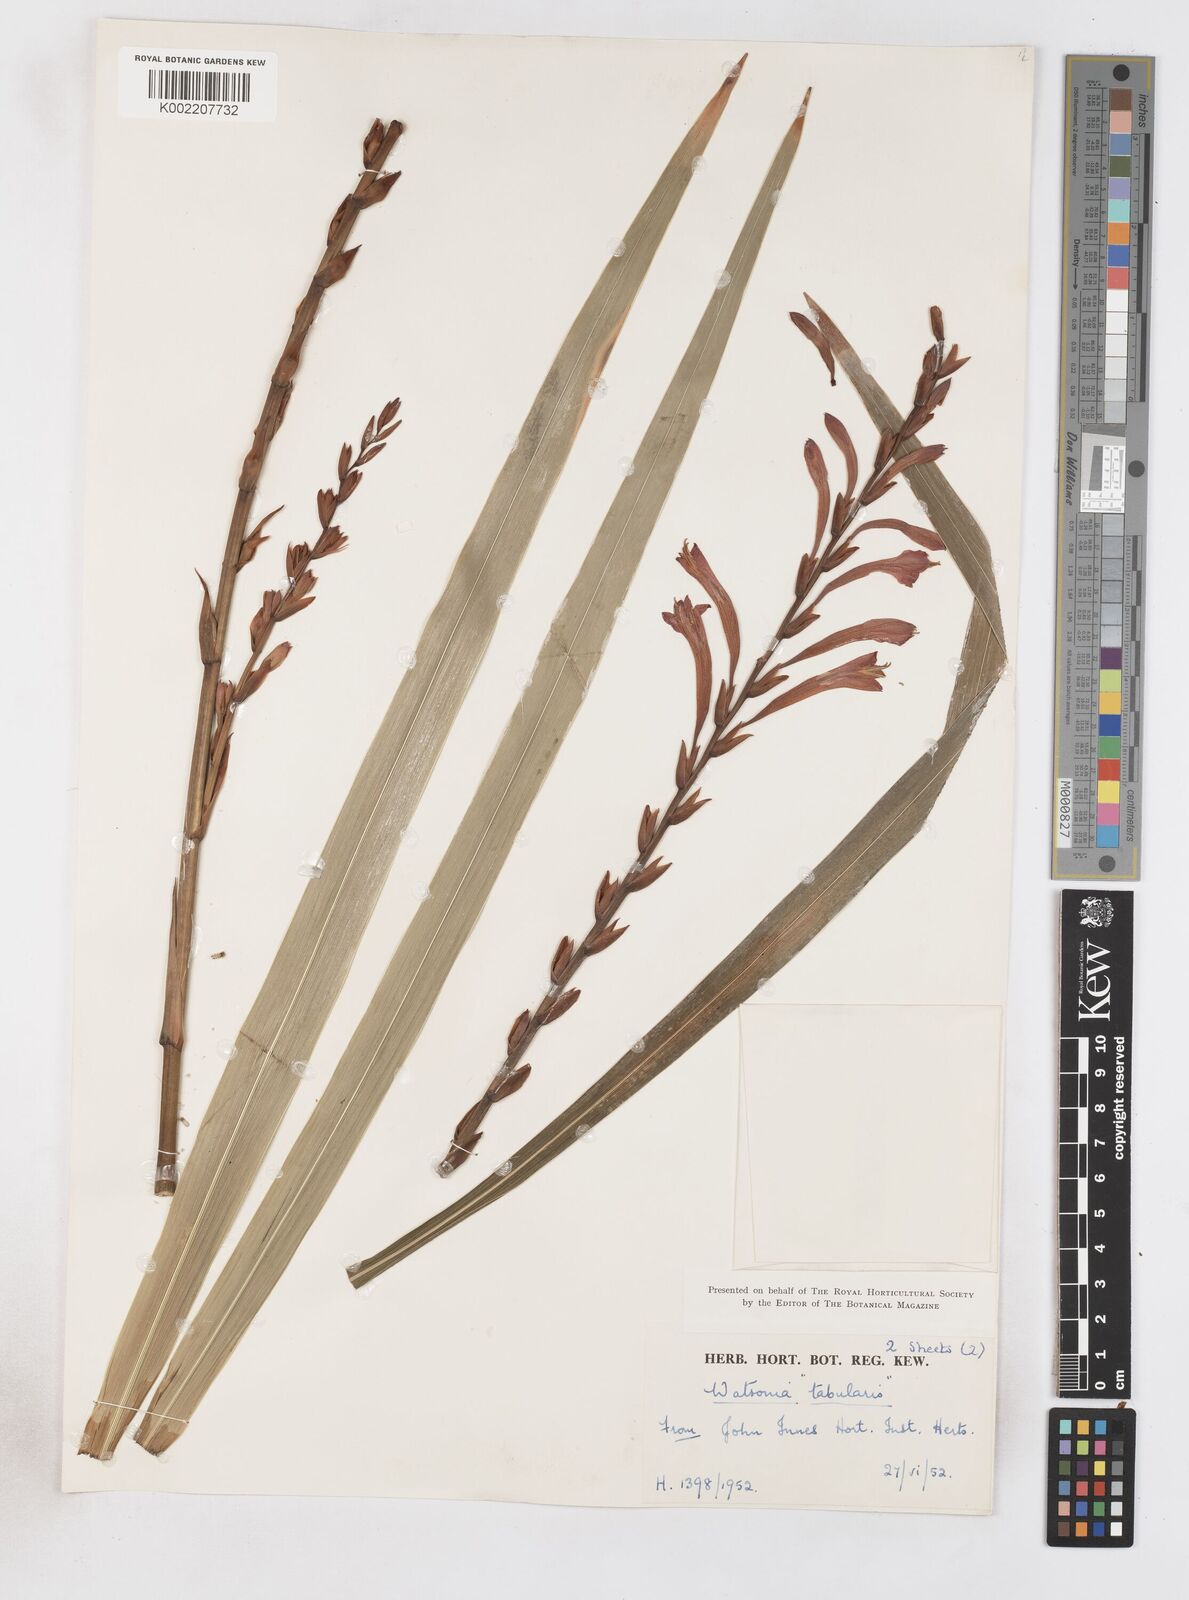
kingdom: Plantae
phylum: Tracheophyta
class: Liliopsida
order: Asparagales
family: Iridaceae
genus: Watsonia
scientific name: Watsonia
